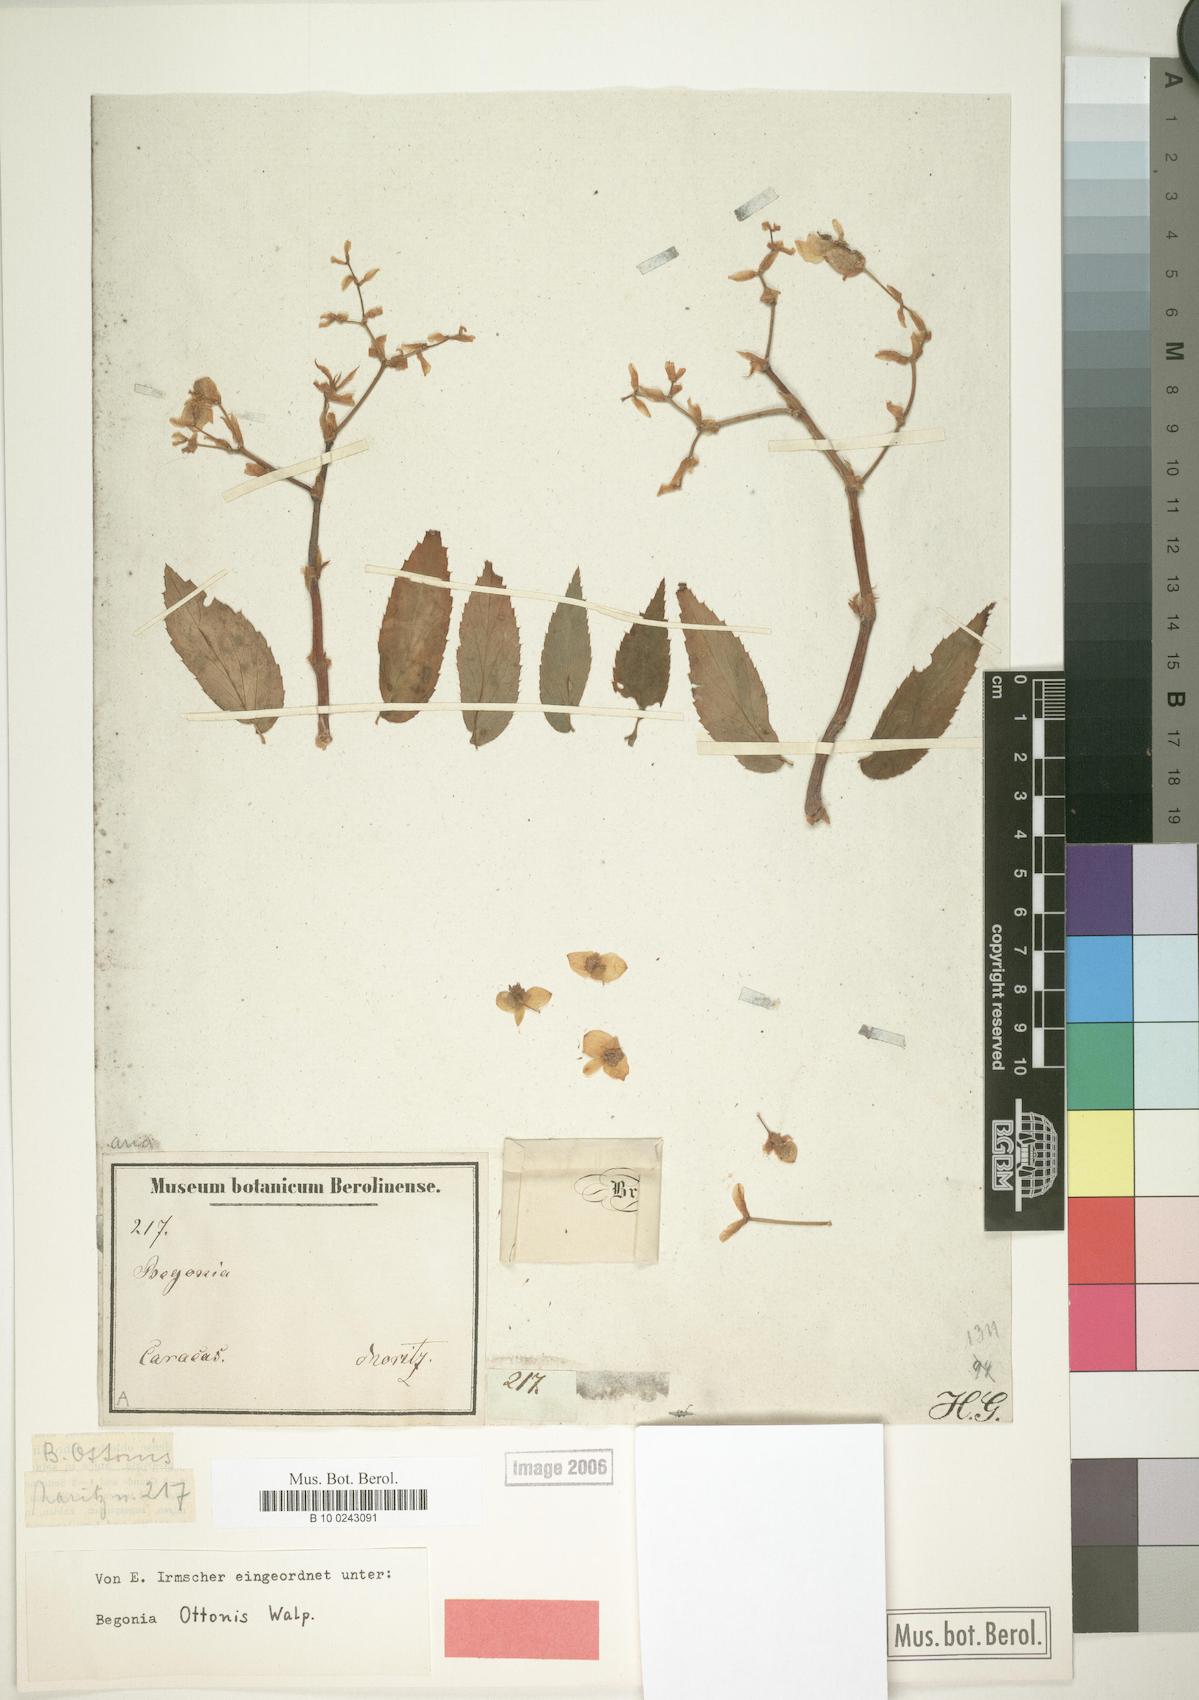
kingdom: Plantae
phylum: Tracheophyta
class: Magnoliopsida
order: Cucurbitales
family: Begoniaceae
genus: Begonia
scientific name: Begonia guaduensis
